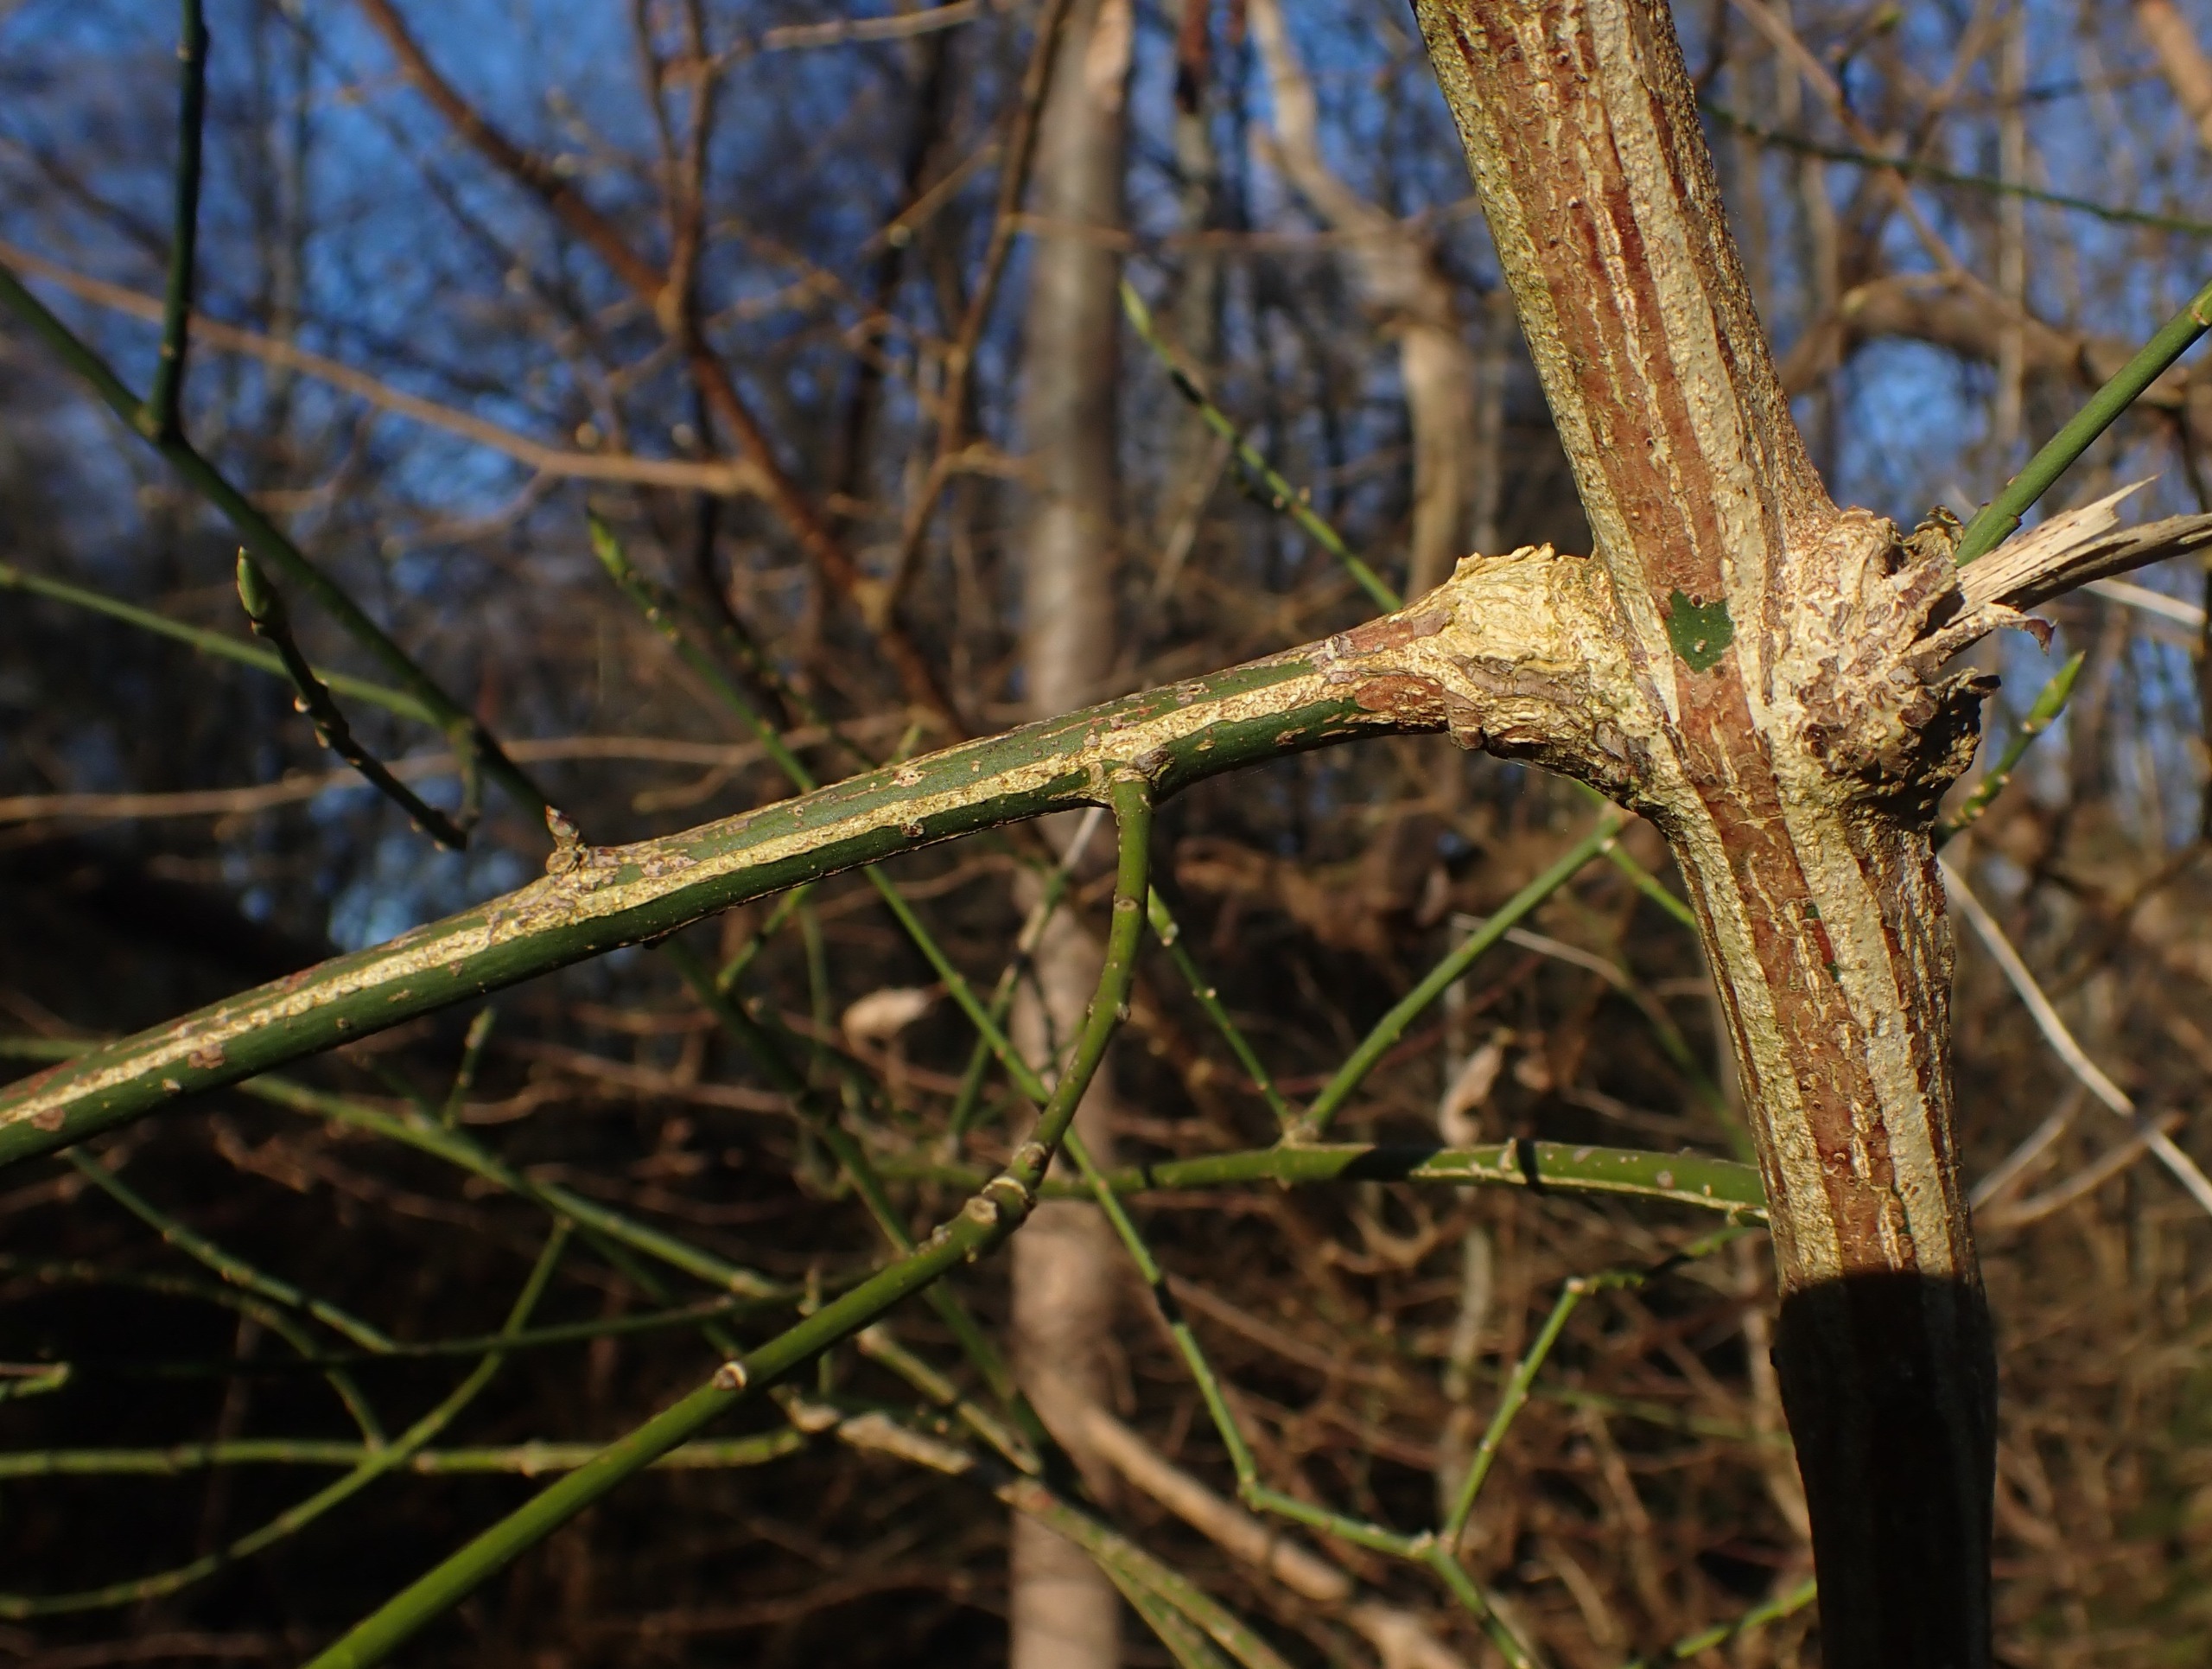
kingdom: Plantae
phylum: Tracheophyta
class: Magnoliopsida
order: Celastrales
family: Celastraceae
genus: Euonymus
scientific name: Euonymus europaeus
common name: Benved
